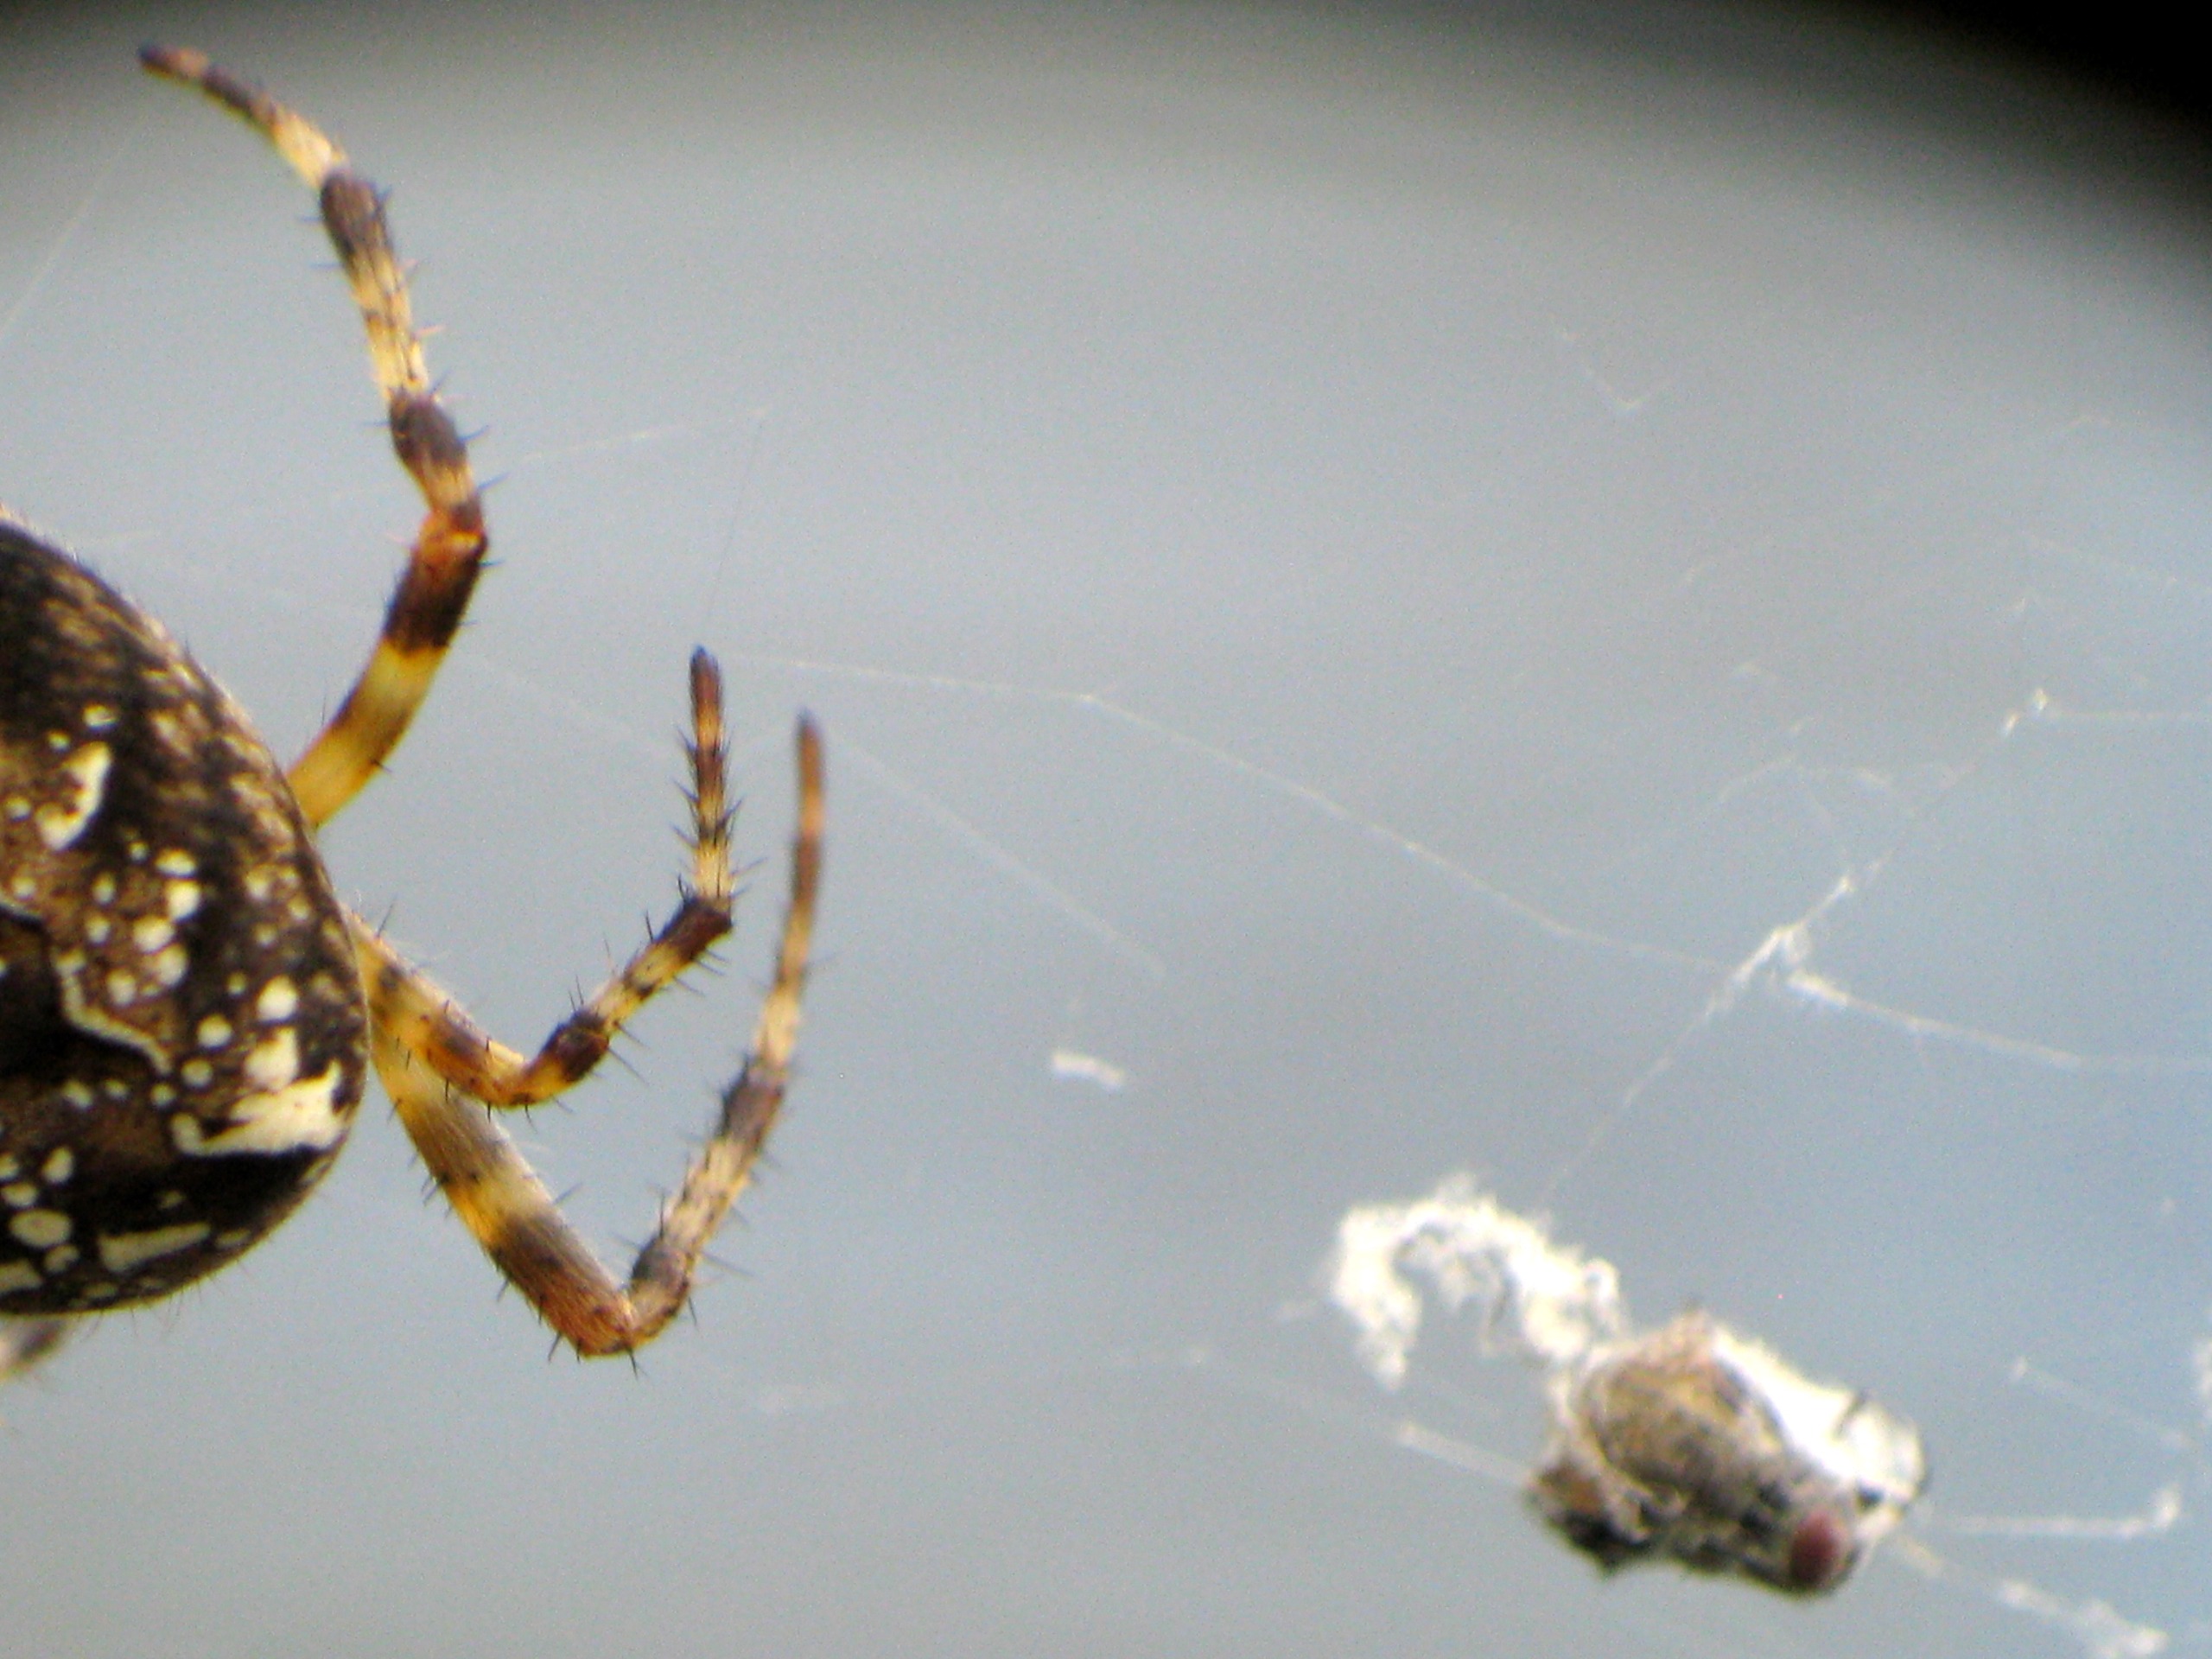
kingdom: Animalia
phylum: Arthropoda
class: Arachnida
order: Araneae
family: Araneidae
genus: Araneus
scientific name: Araneus diadematus
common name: Korsedderkop
